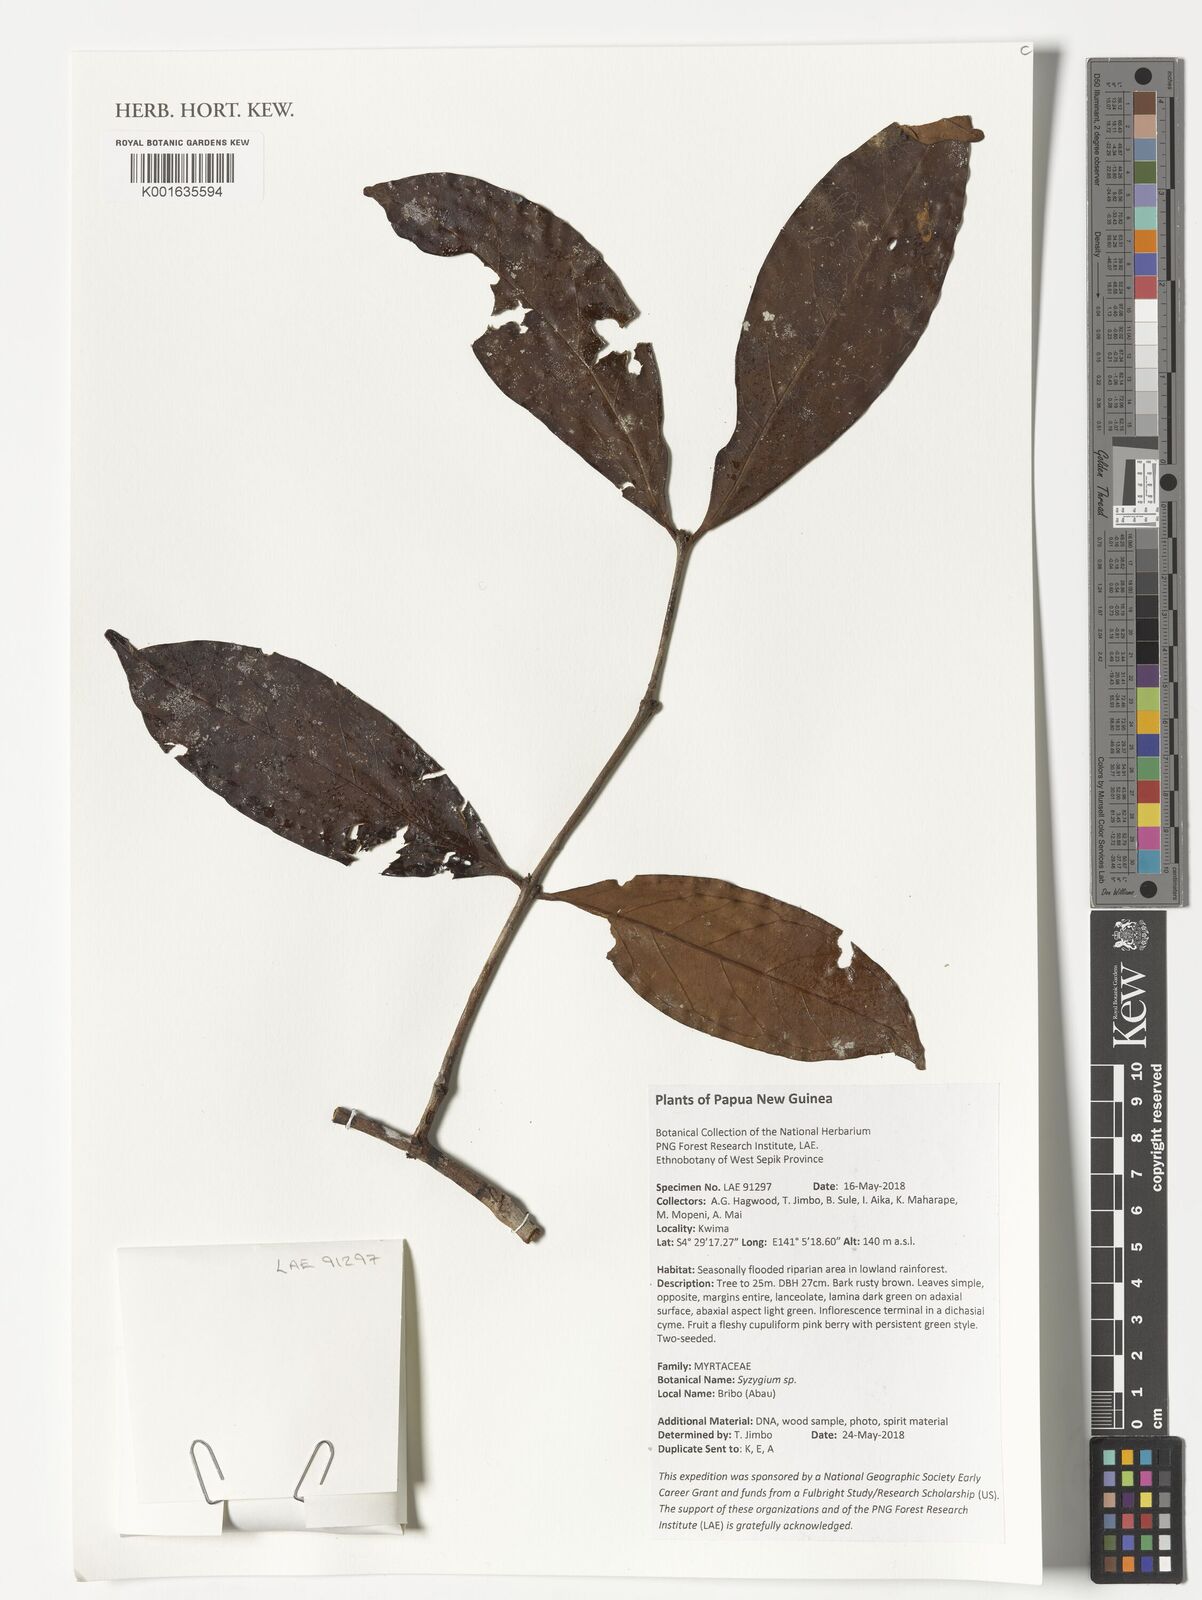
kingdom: Plantae
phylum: Tracheophyta
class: Magnoliopsida
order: Myrtales
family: Myrtaceae
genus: Syzygium
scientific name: Syzygium
